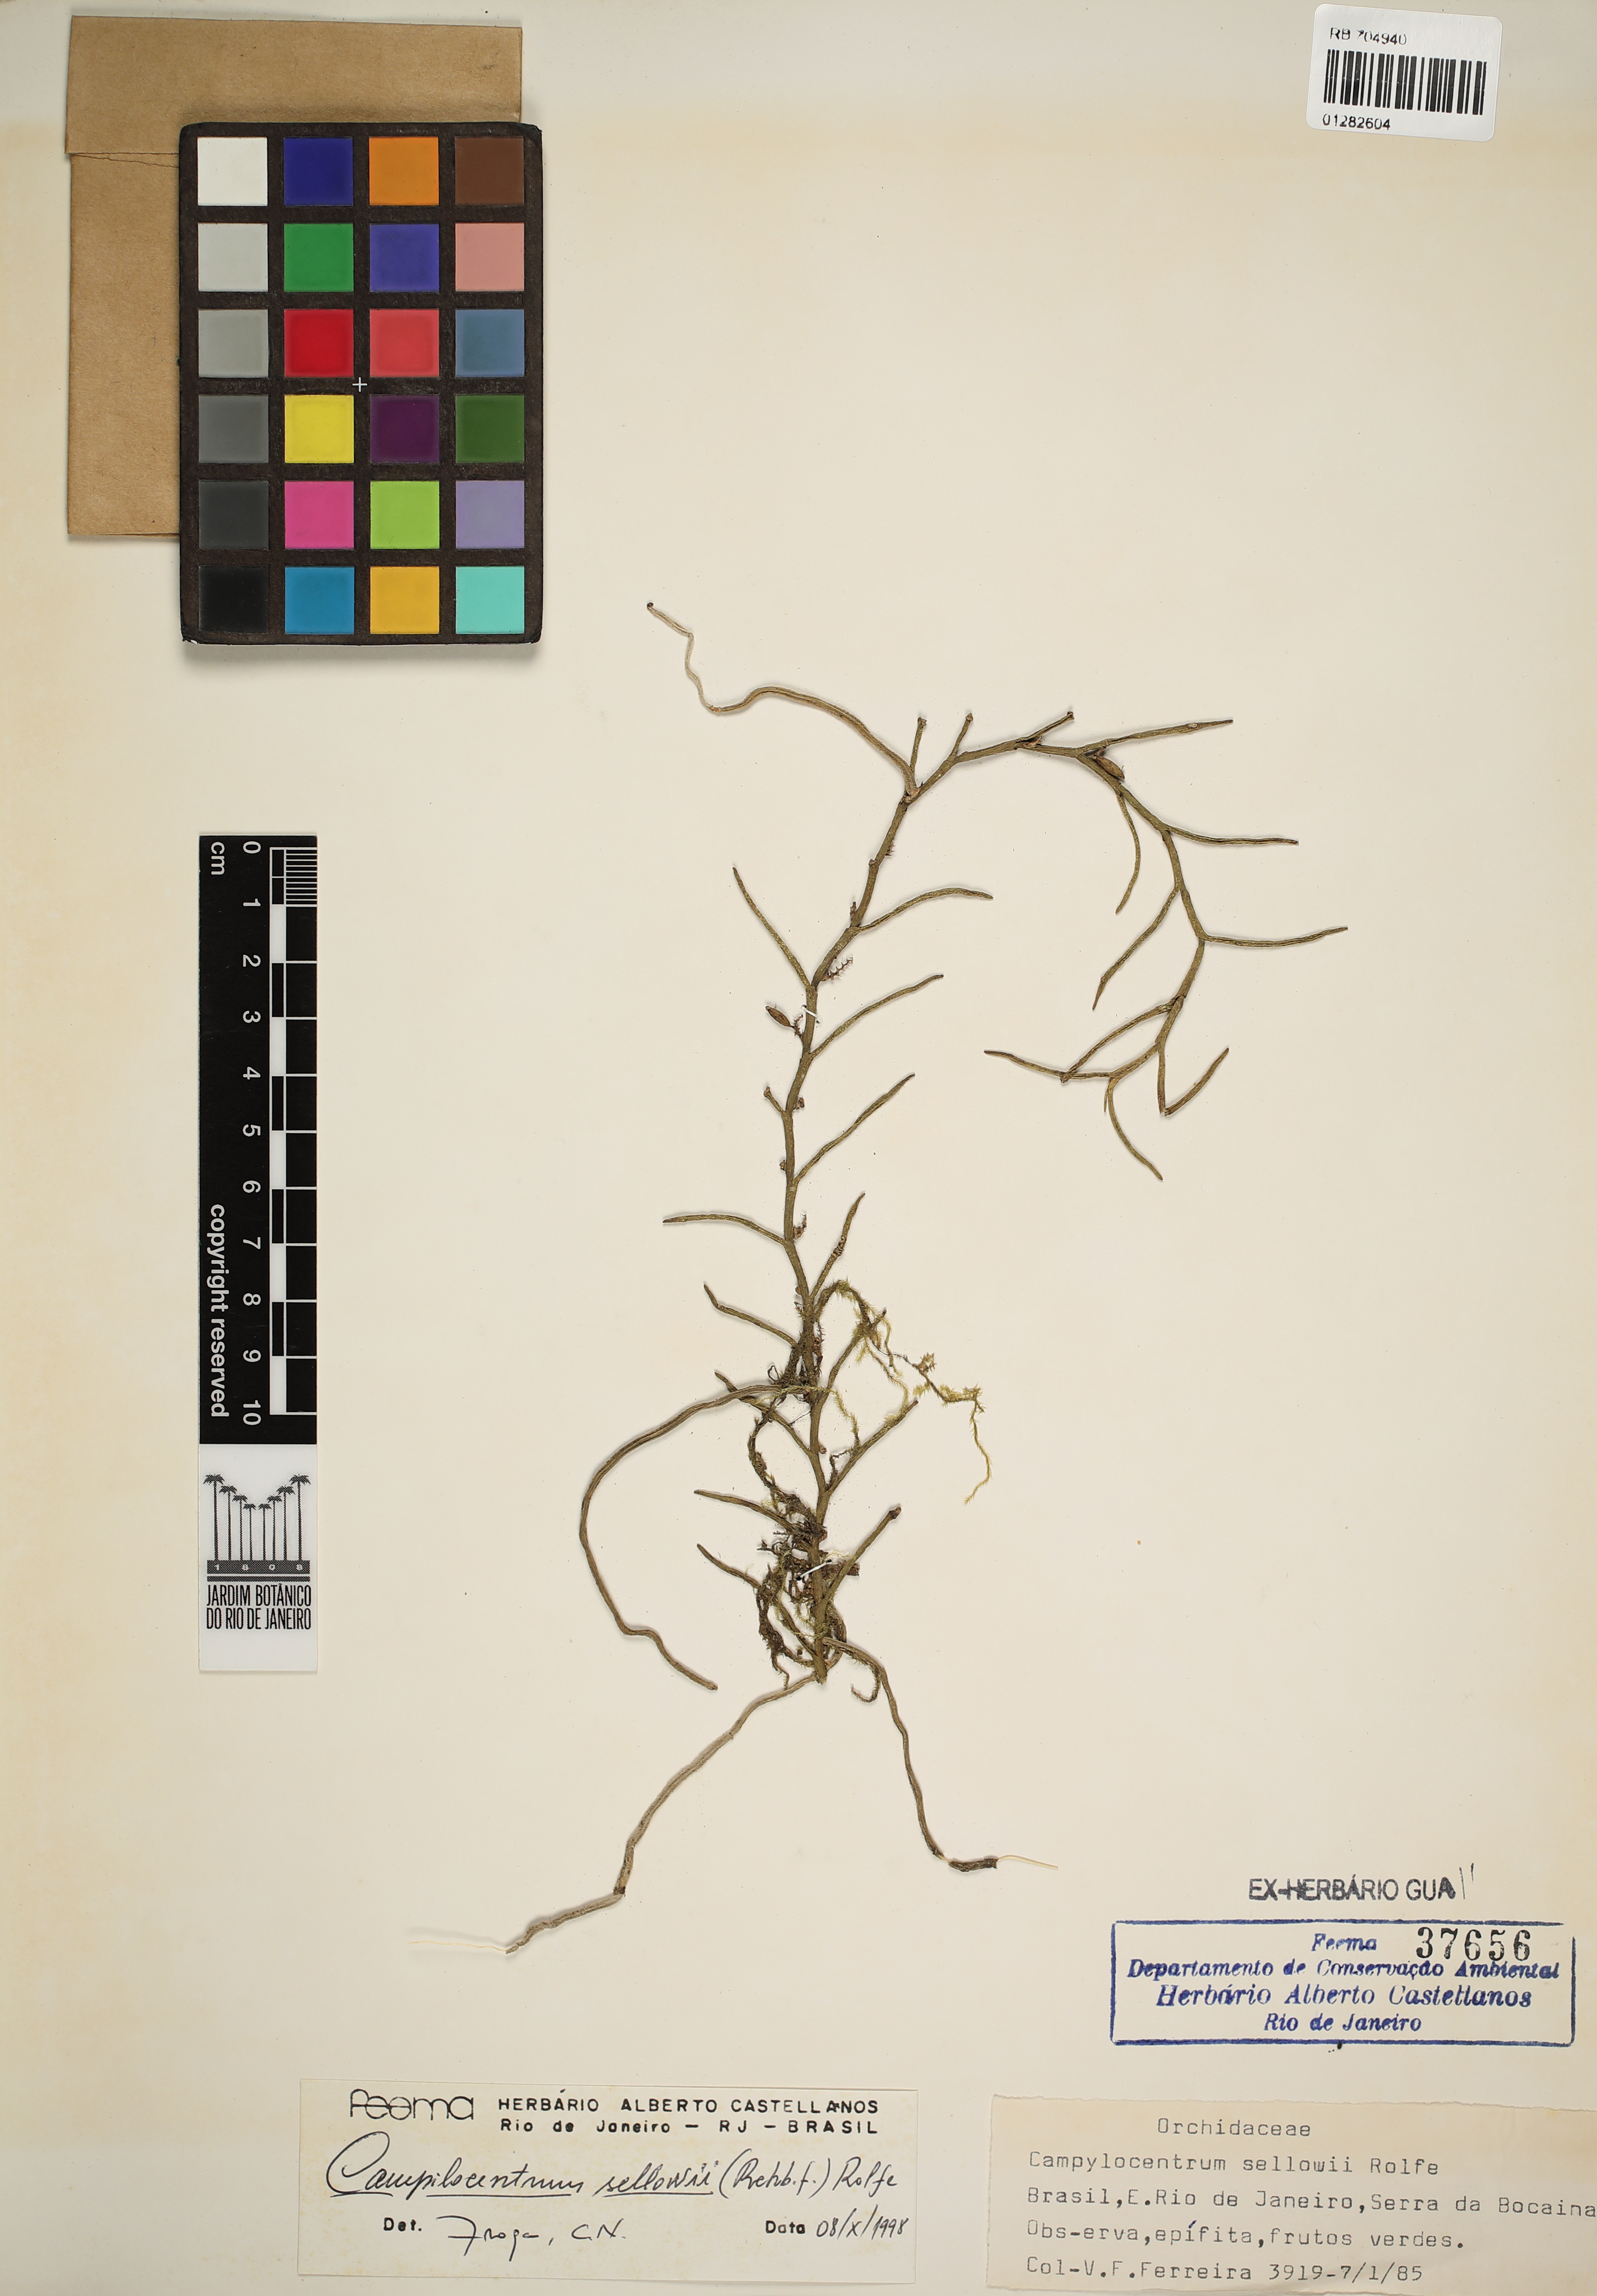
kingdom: Plantae
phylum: Tracheophyta
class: Liliopsida
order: Asparagales
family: Orchidaceae
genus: Campylocentrum
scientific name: Campylocentrum sellowii
